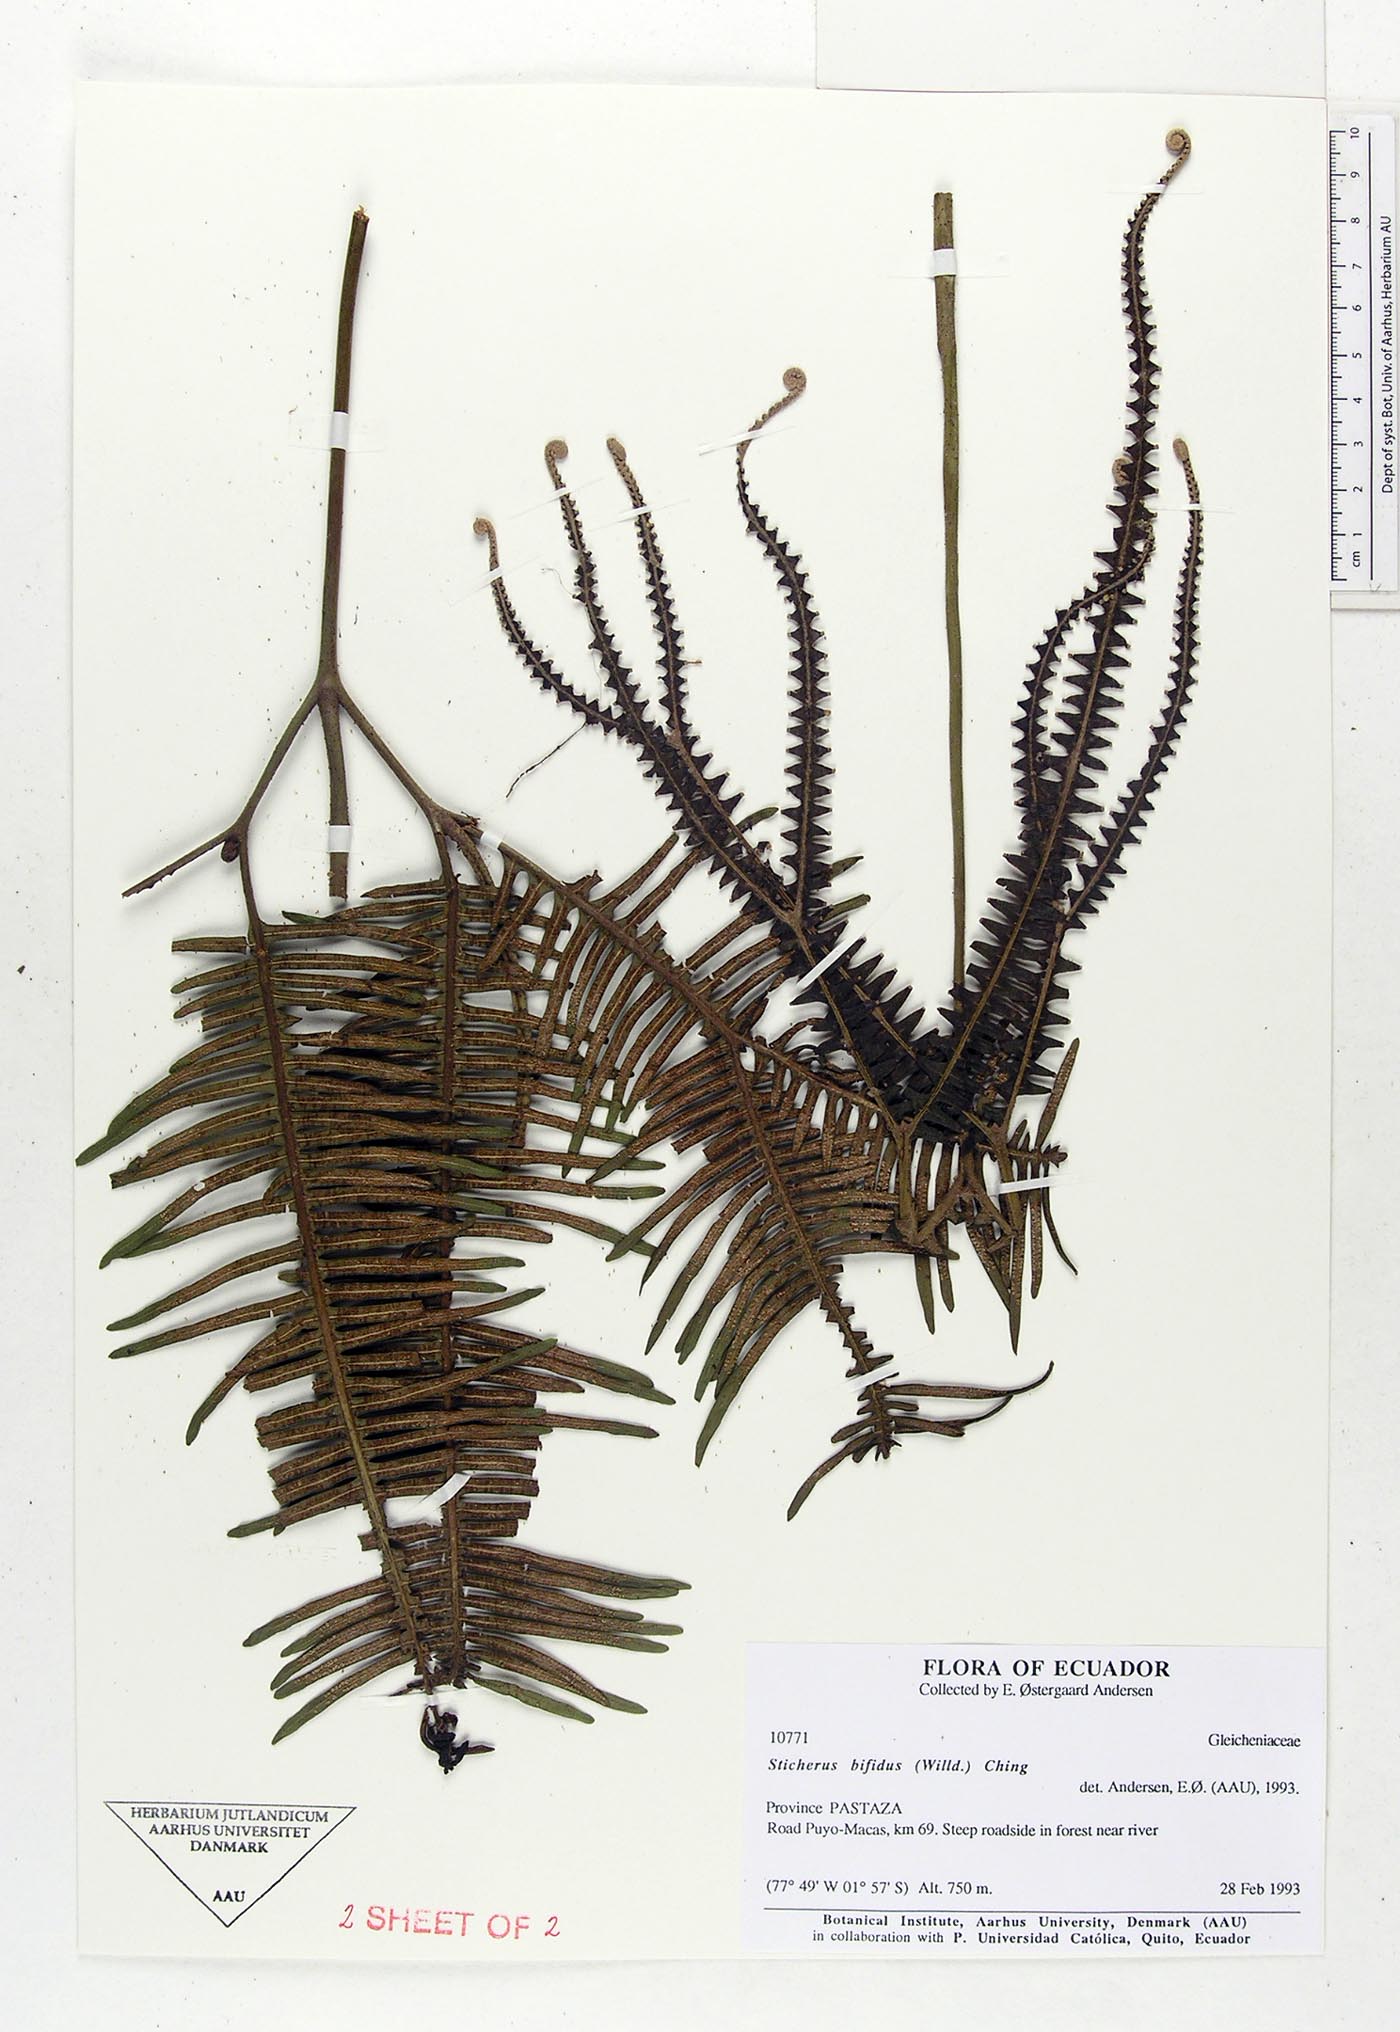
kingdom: Plantae
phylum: Tracheophyta
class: Polypodiopsida
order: Gleicheniales
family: Gleicheniaceae
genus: Sticherus
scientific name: Sticherus bifidus
